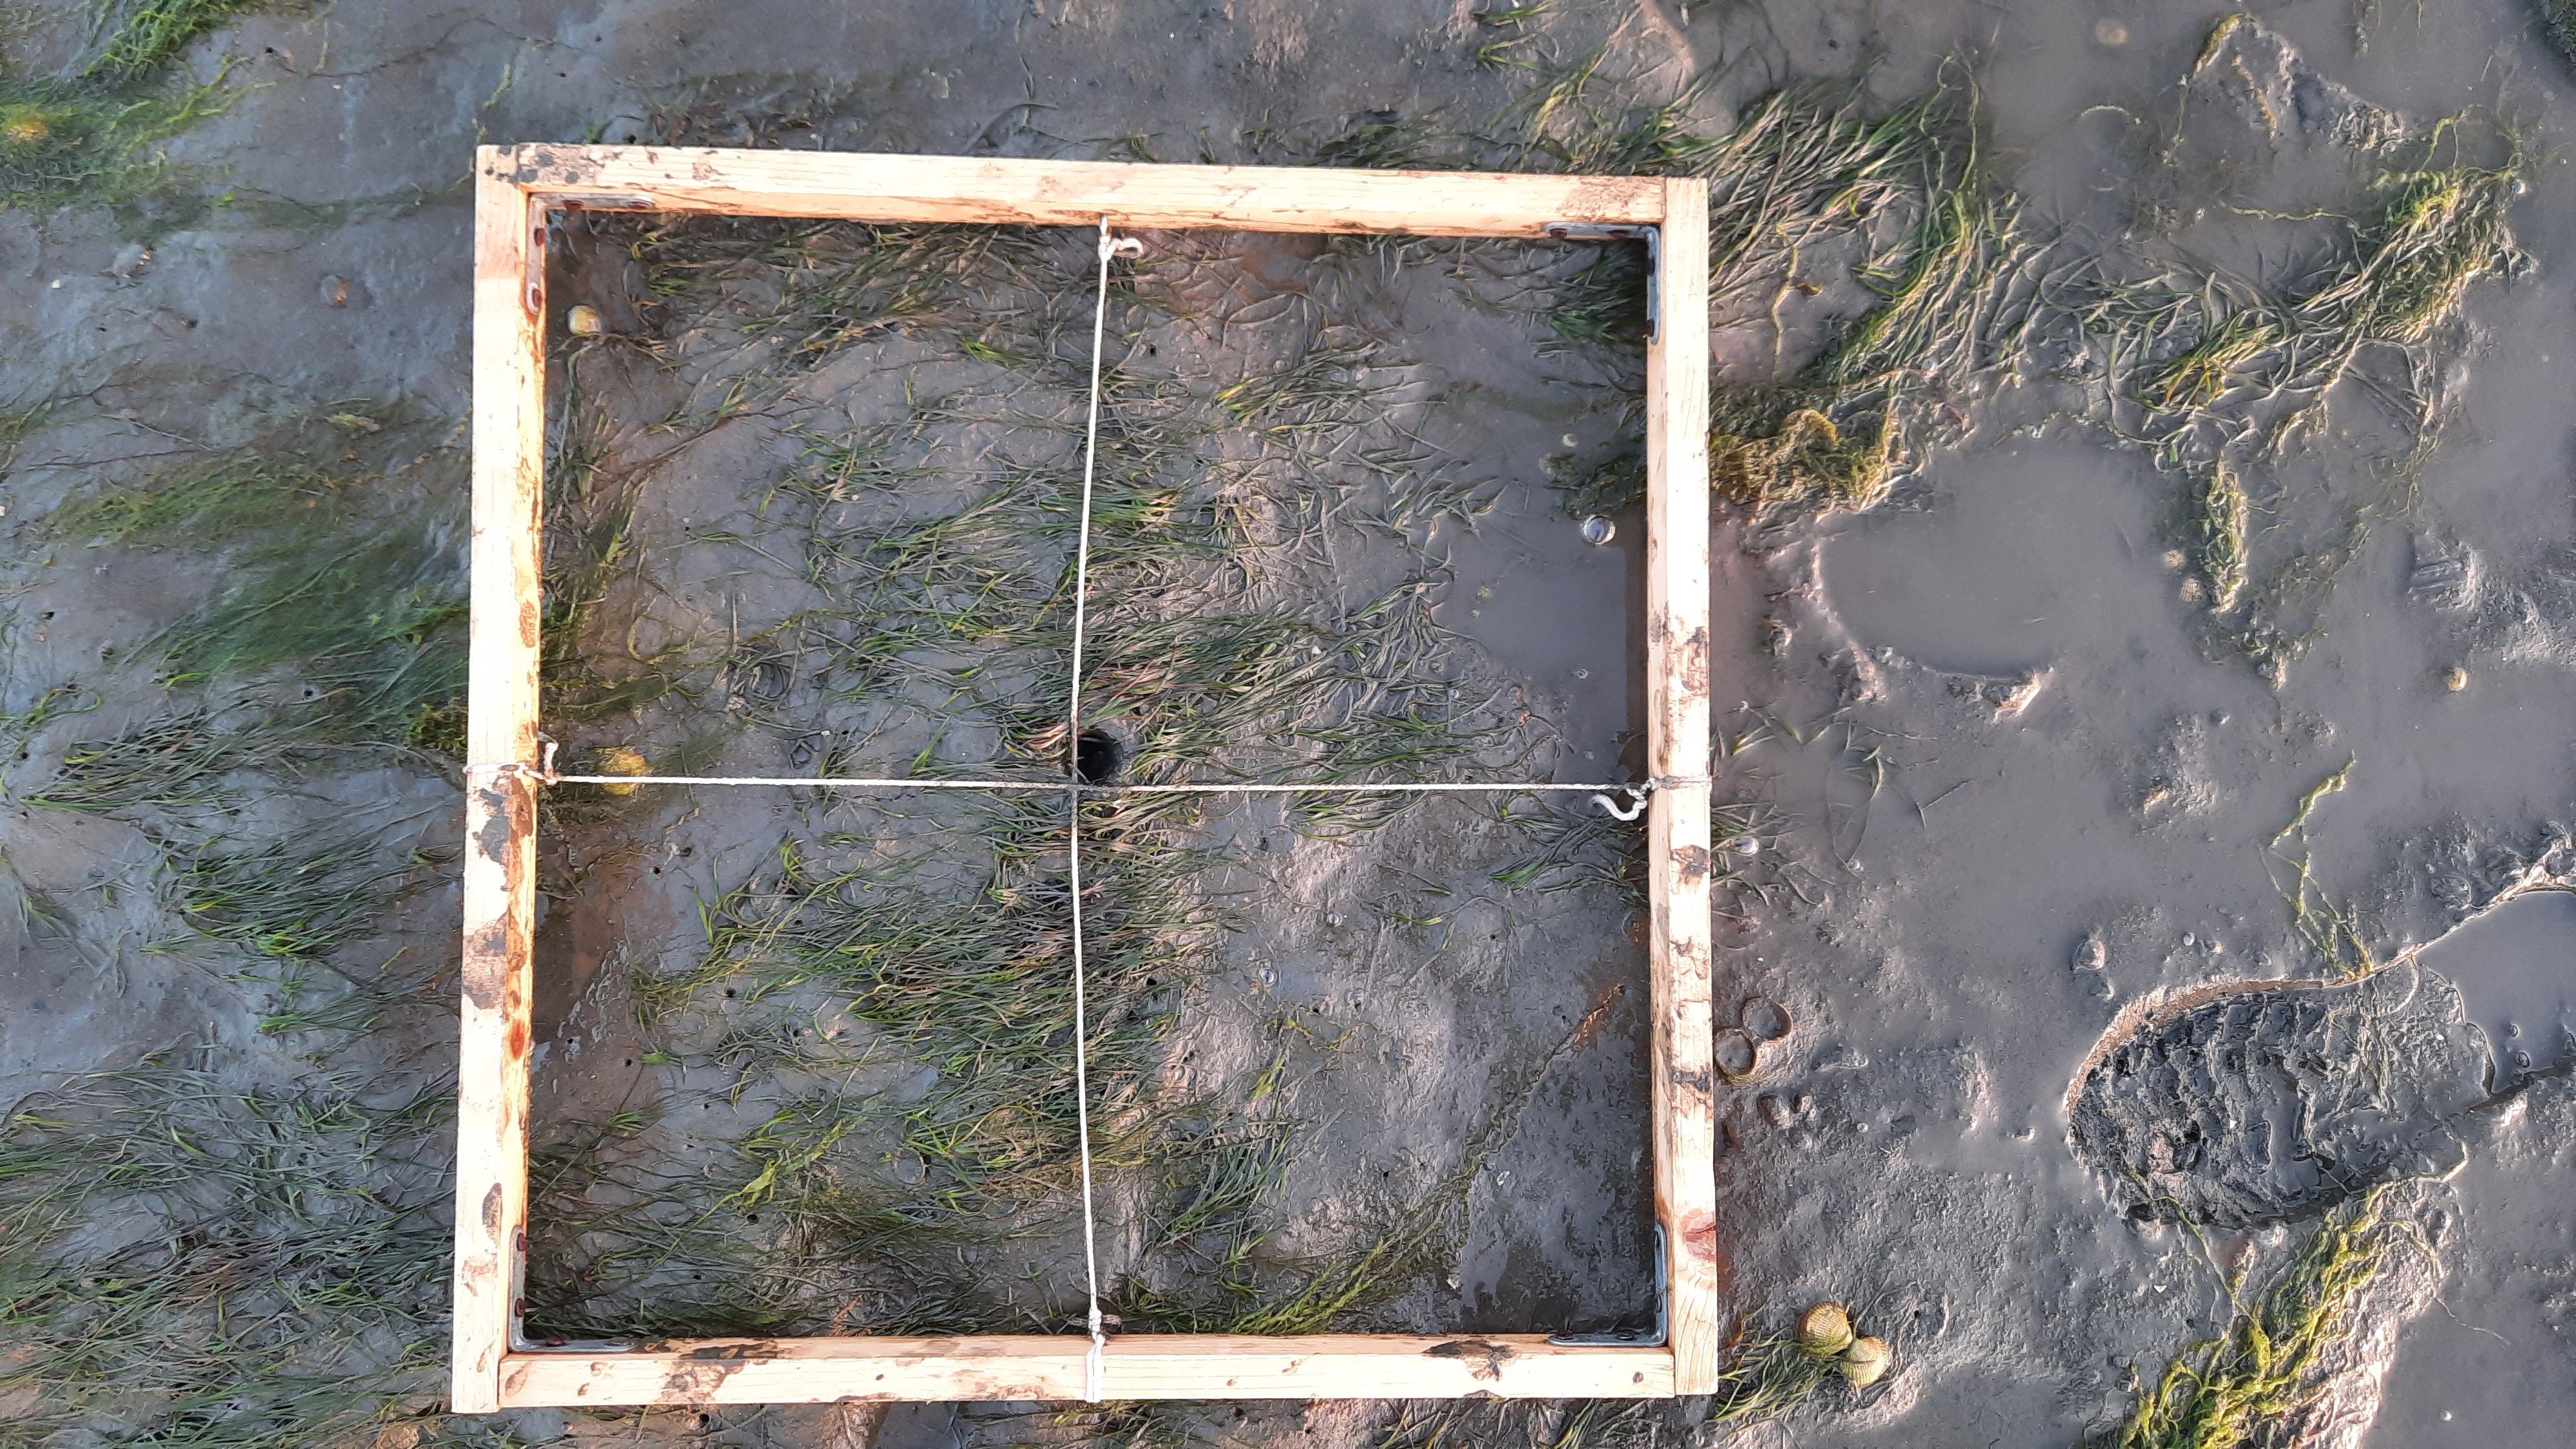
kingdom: Plantae
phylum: Tracheophyta
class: Liliopsida
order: Alismatales
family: Zosteraceae
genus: Zostera
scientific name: Zostera noltii
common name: Dwarf eelgrass
